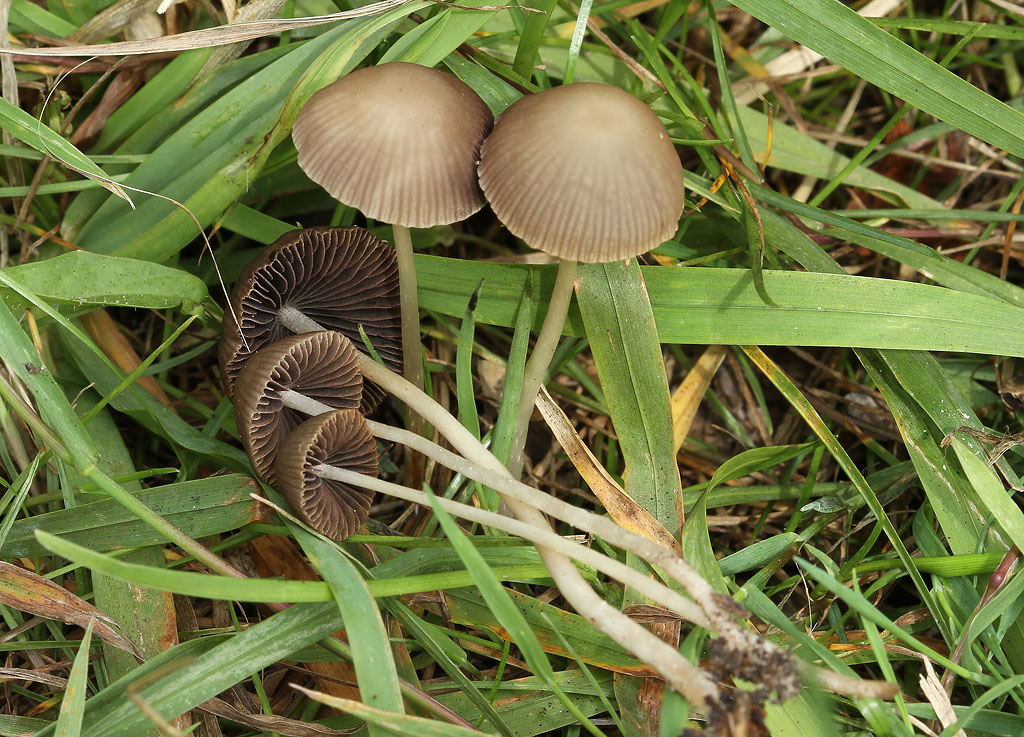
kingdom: Fungi
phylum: Basidiomycota
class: Agaricomycetes
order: Agaricales
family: Psathyrellaceae
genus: Psathyrella
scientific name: Psathyrella pseudogracilis
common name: slank mørkhat
